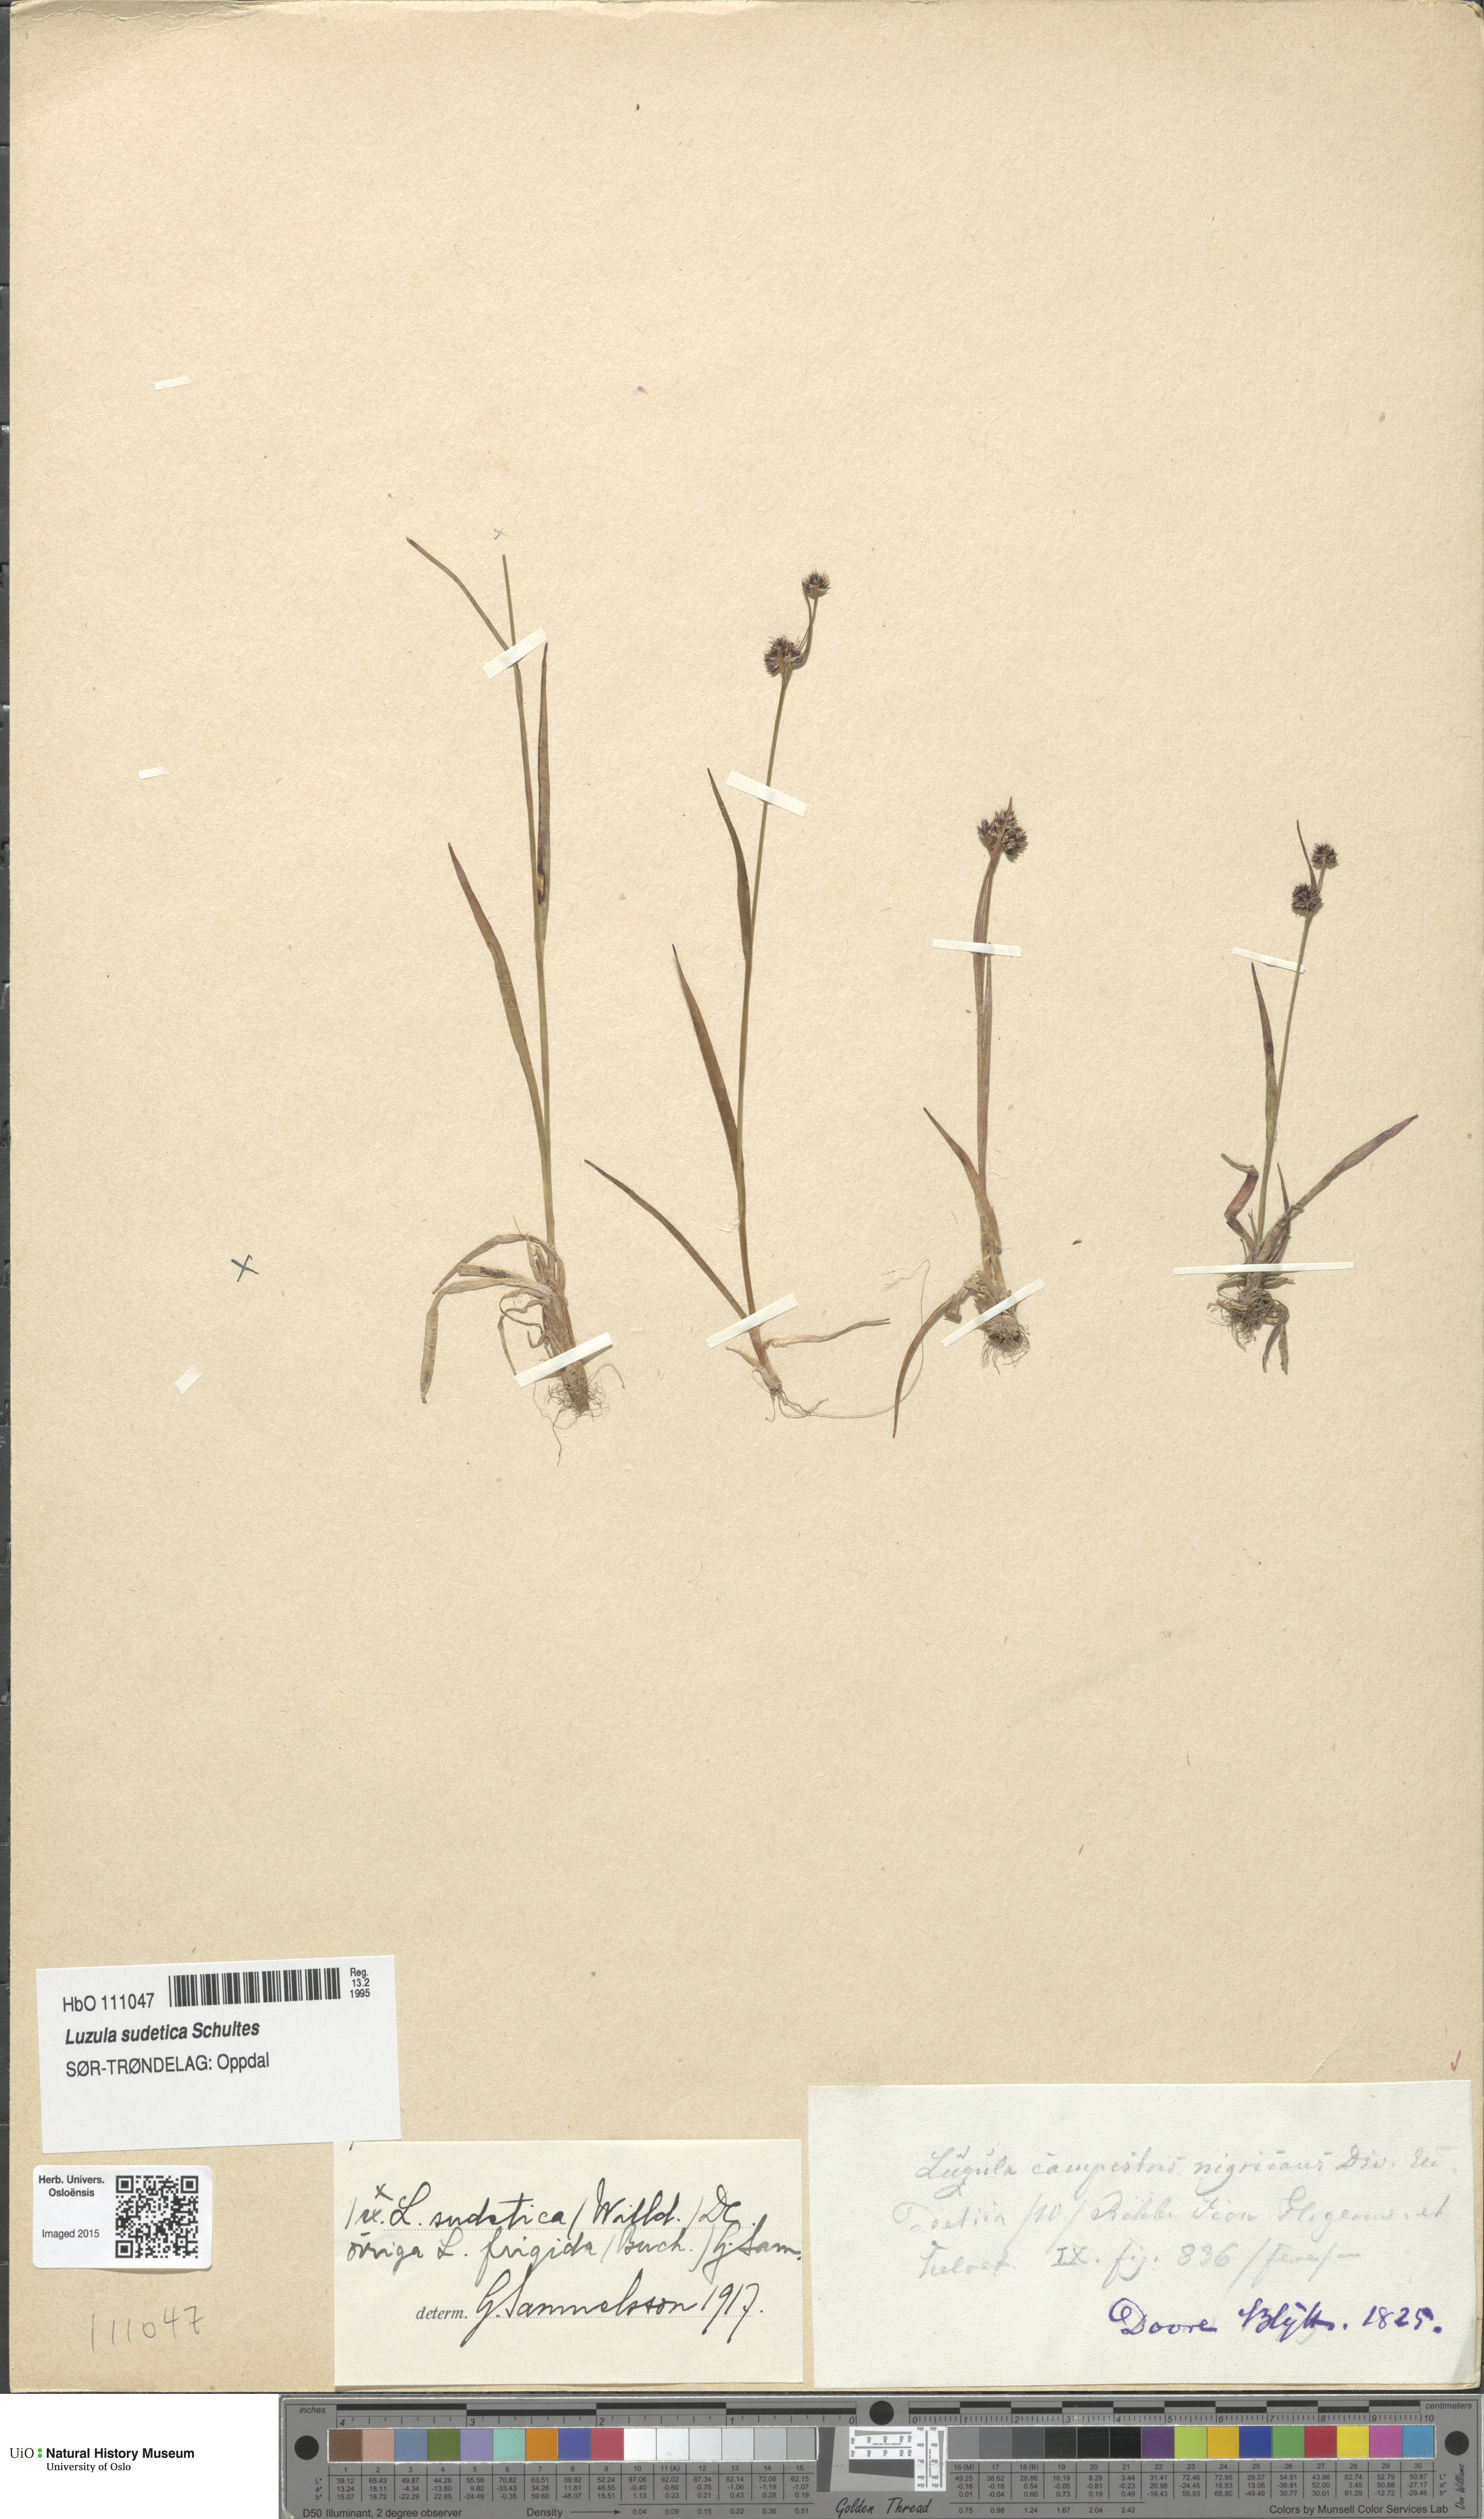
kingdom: Plantae
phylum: Tracheophyta
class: Liliopsida
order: Poales
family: Juncaceae
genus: Luzula
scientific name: Luzula sudetica
